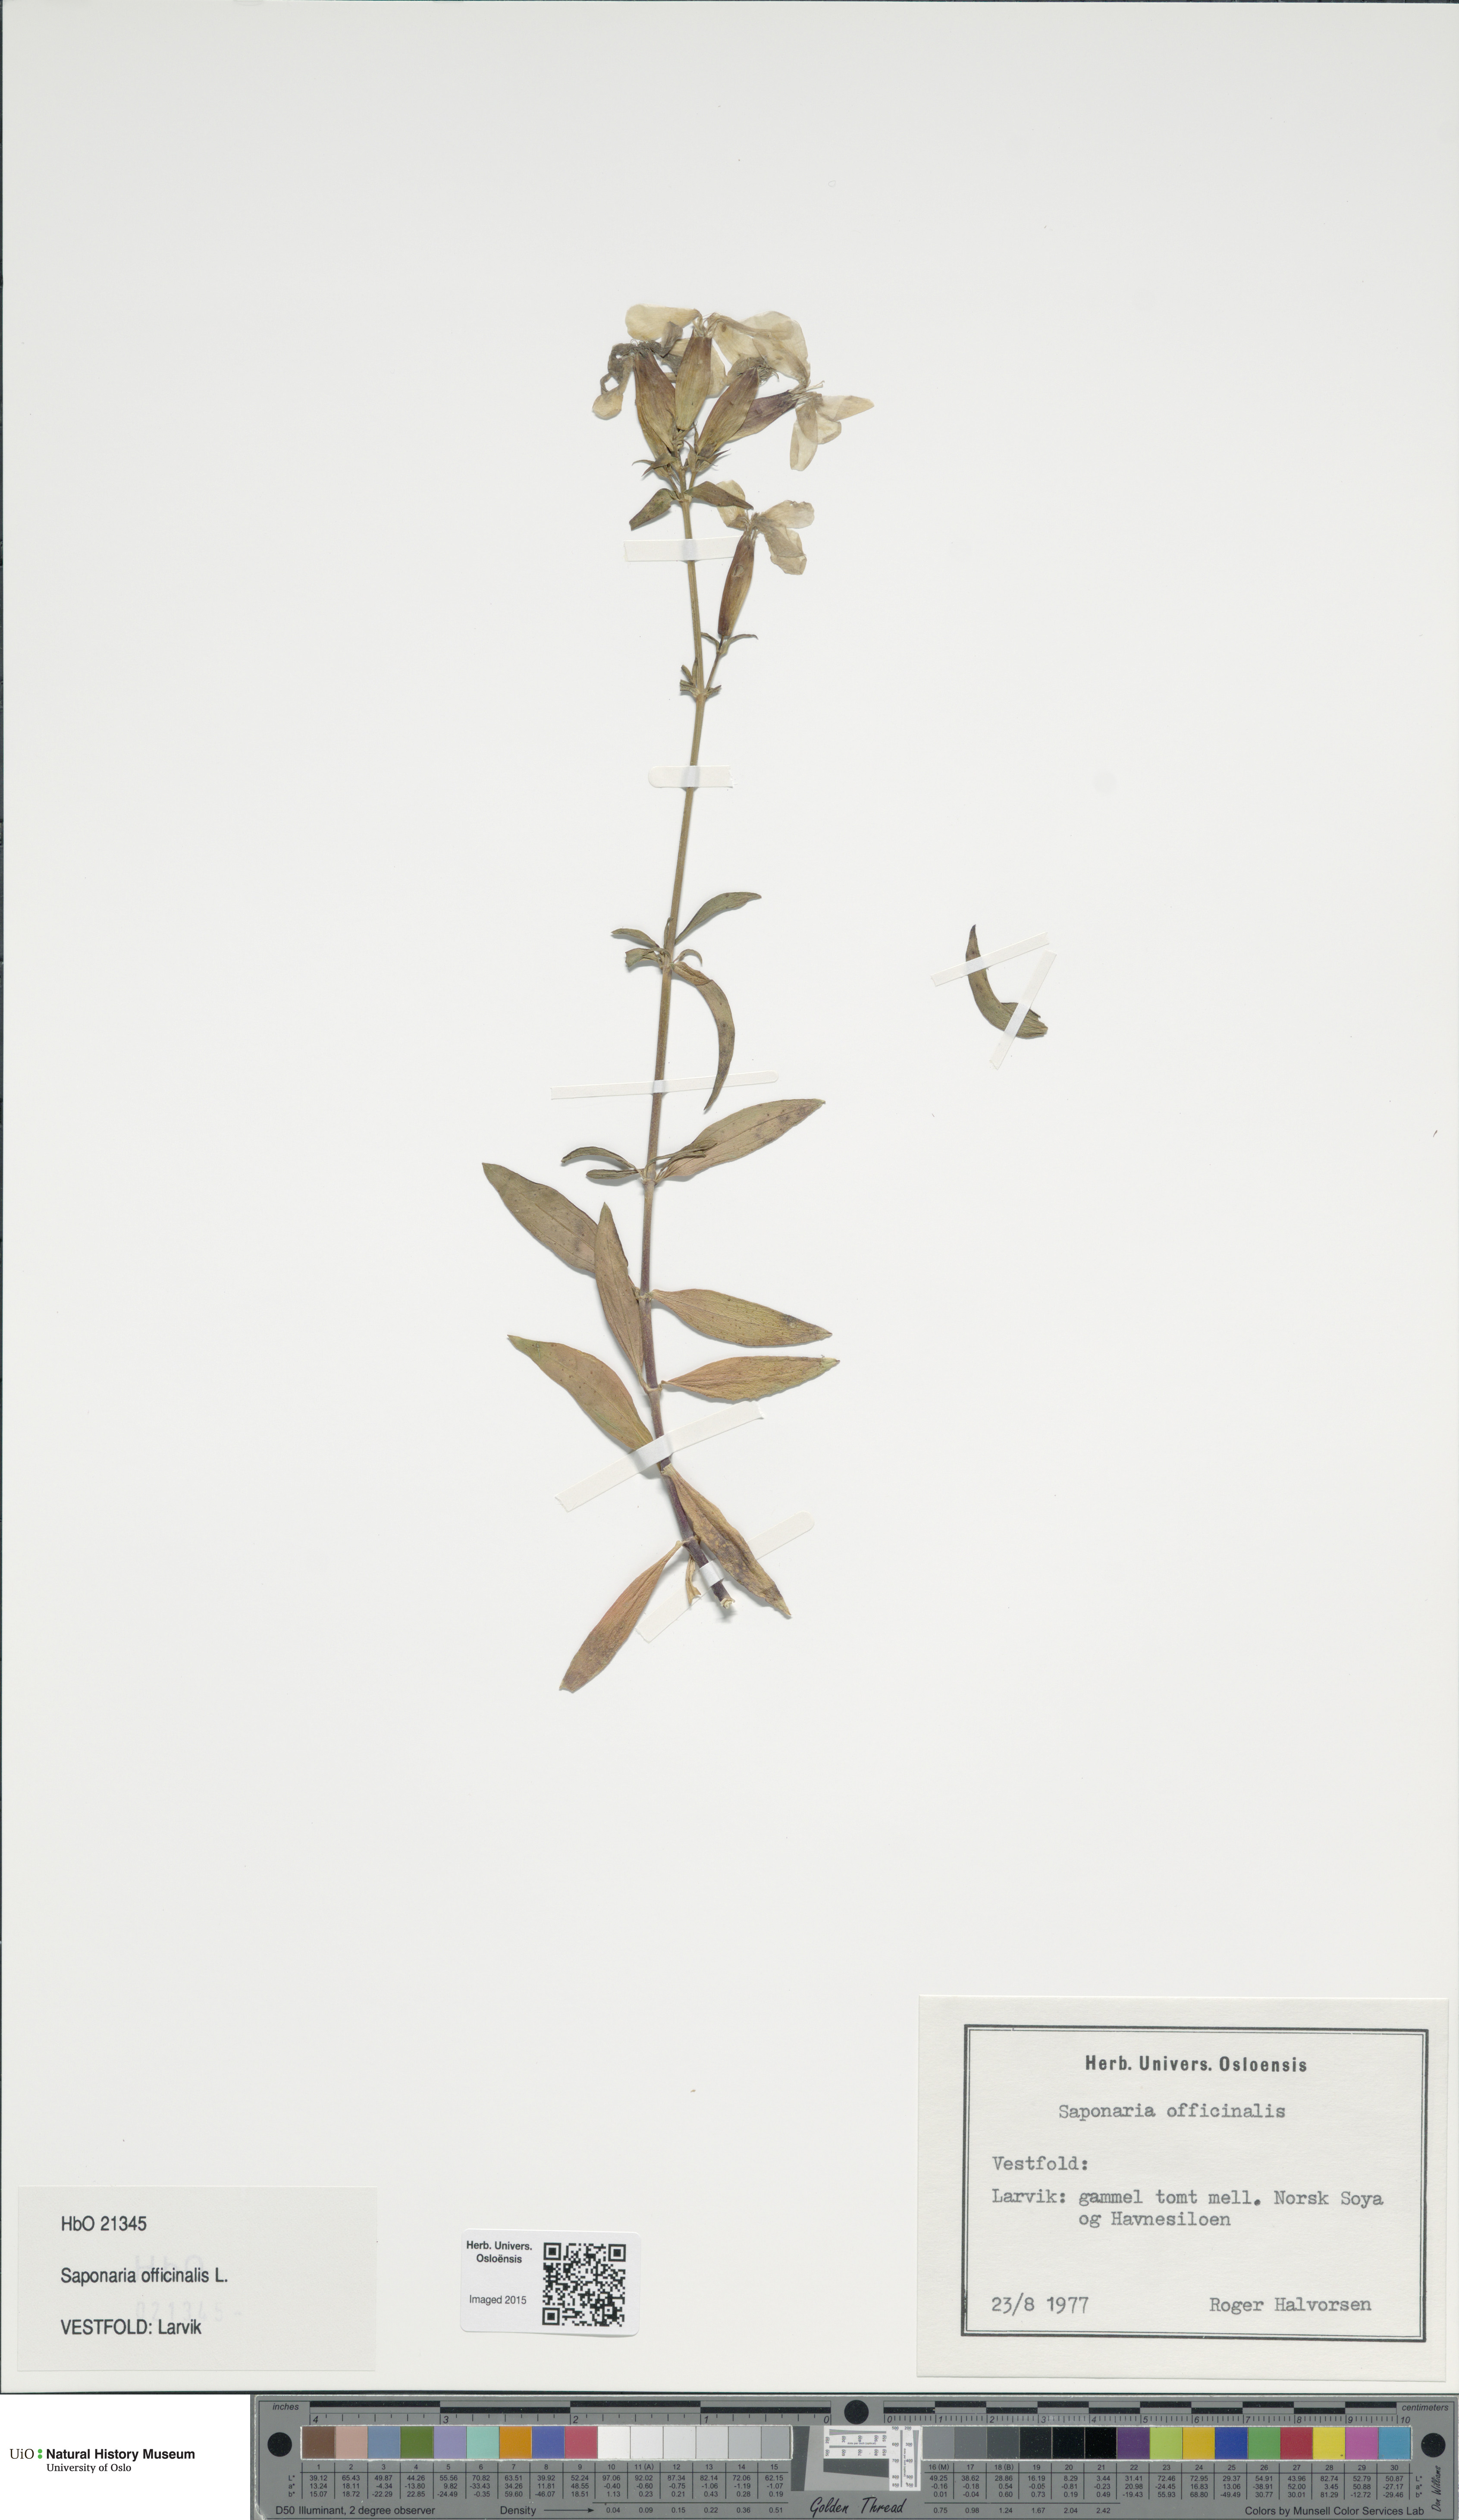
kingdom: Plantae
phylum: Tracheophyta
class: Magnoliopsida
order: Caryophyllales
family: Caryophyllaceae
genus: Saponaria
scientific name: Saponaria officinalis
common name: Soapwort
